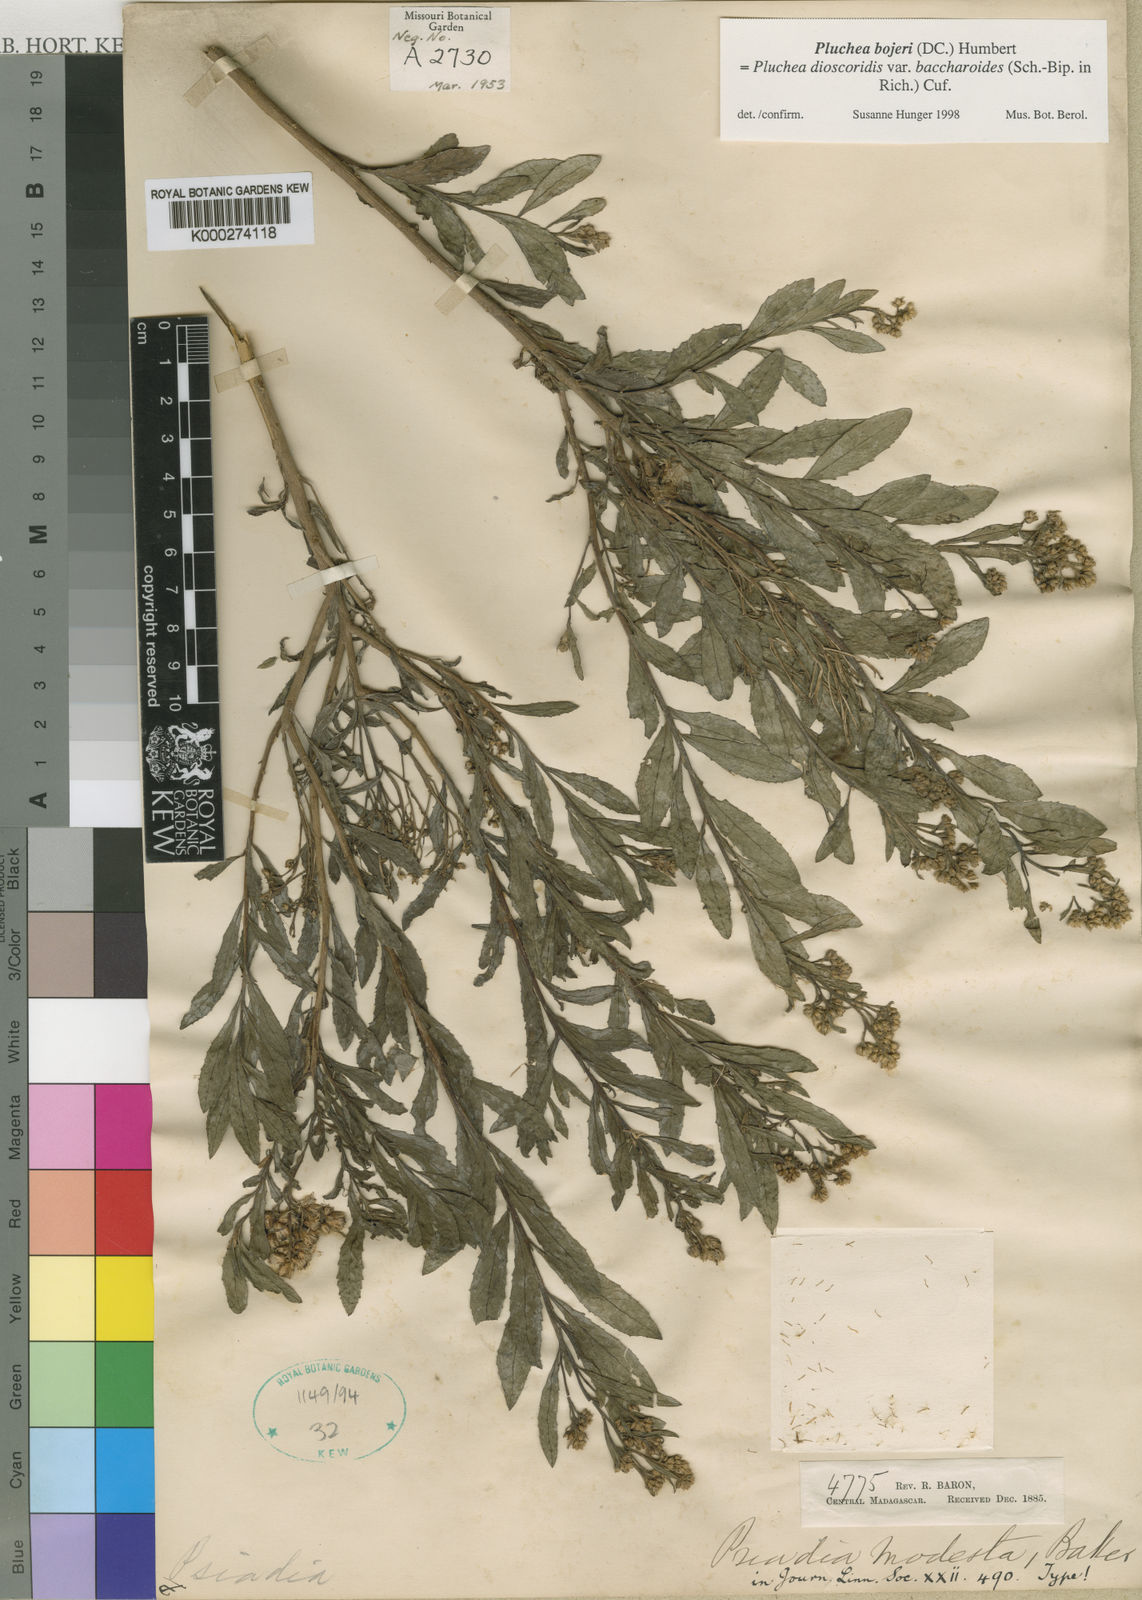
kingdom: Plantae
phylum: Tracheophyta
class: Magnoliopsida
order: Asterales
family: Asteraceae
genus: Pluchea
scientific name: Pluchea bojeri
